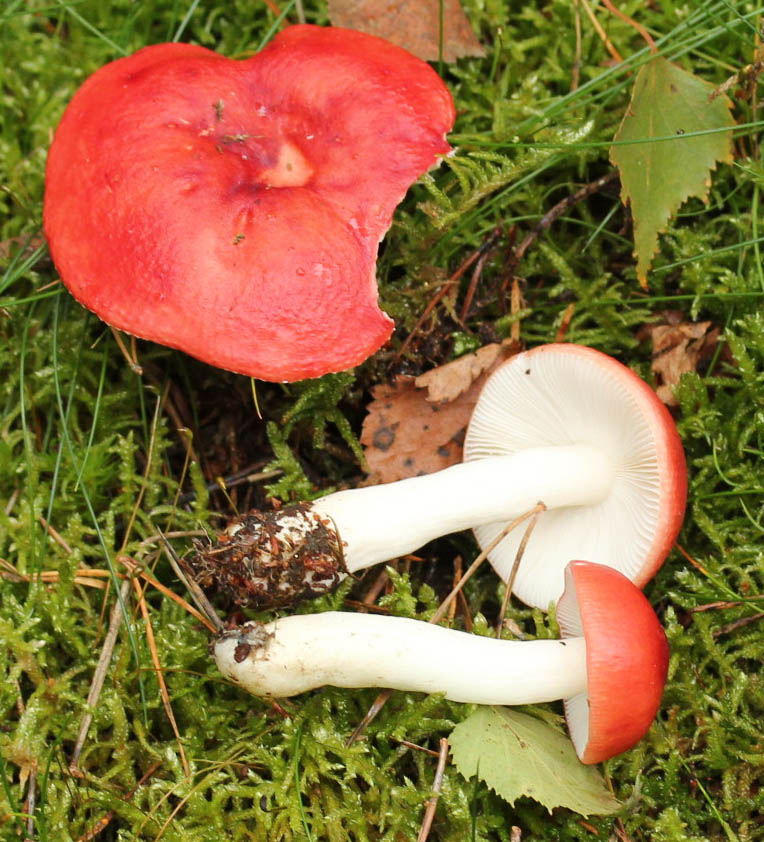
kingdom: Fungi
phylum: Basidiomycota
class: Agaricomycetes
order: Russulales
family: Russulaceae
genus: Russula
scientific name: Russula emetica
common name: stor gift-skørhat
